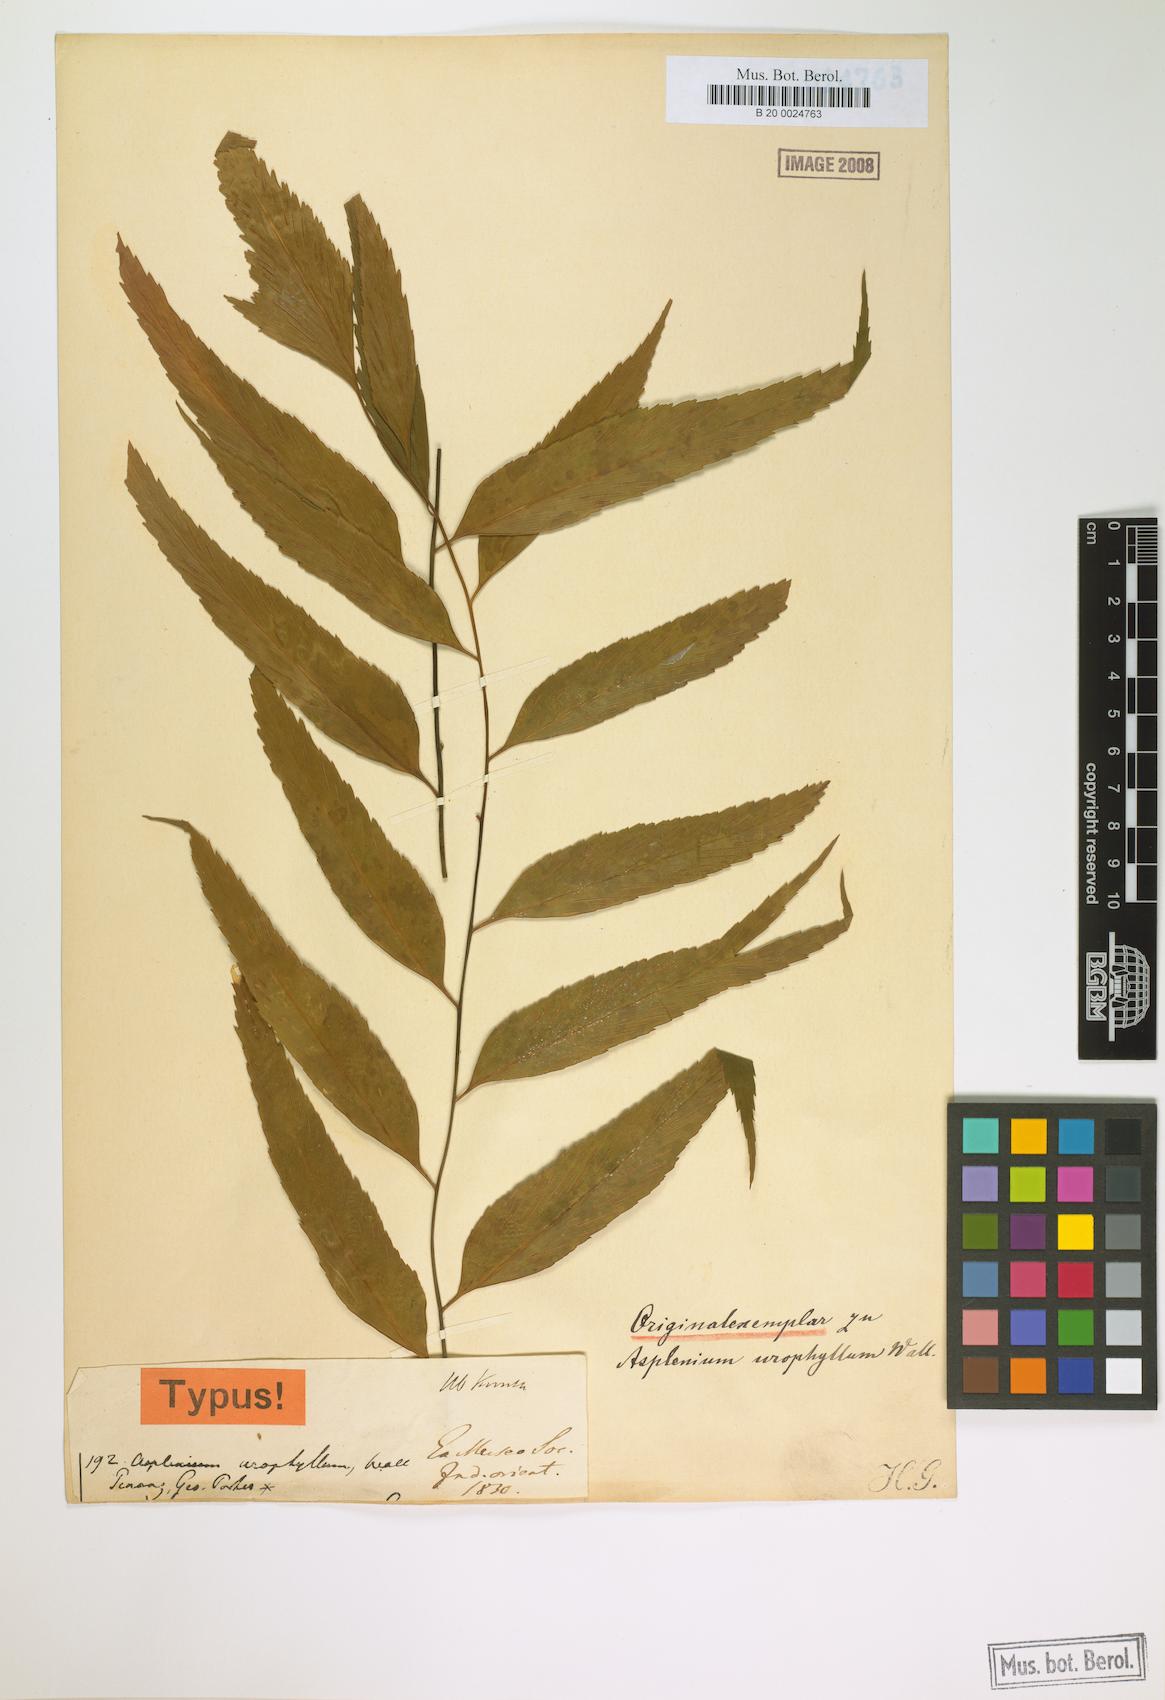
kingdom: Plantae
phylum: Tracheophyta
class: Polypodiopsida
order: Polypodiales
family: Aspleniaceae
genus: Asplenium
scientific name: Asplenium falcatum
